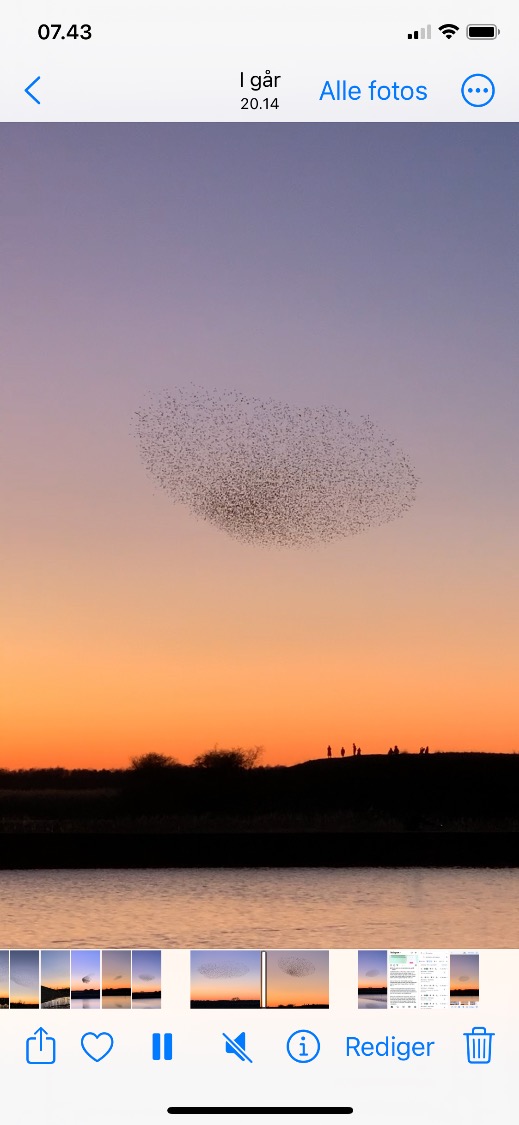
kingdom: Animalia
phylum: Chordata
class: Aves
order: Passeriformes
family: Sturnidae
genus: Sturnus
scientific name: Sturnus vulgaris
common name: Stær
